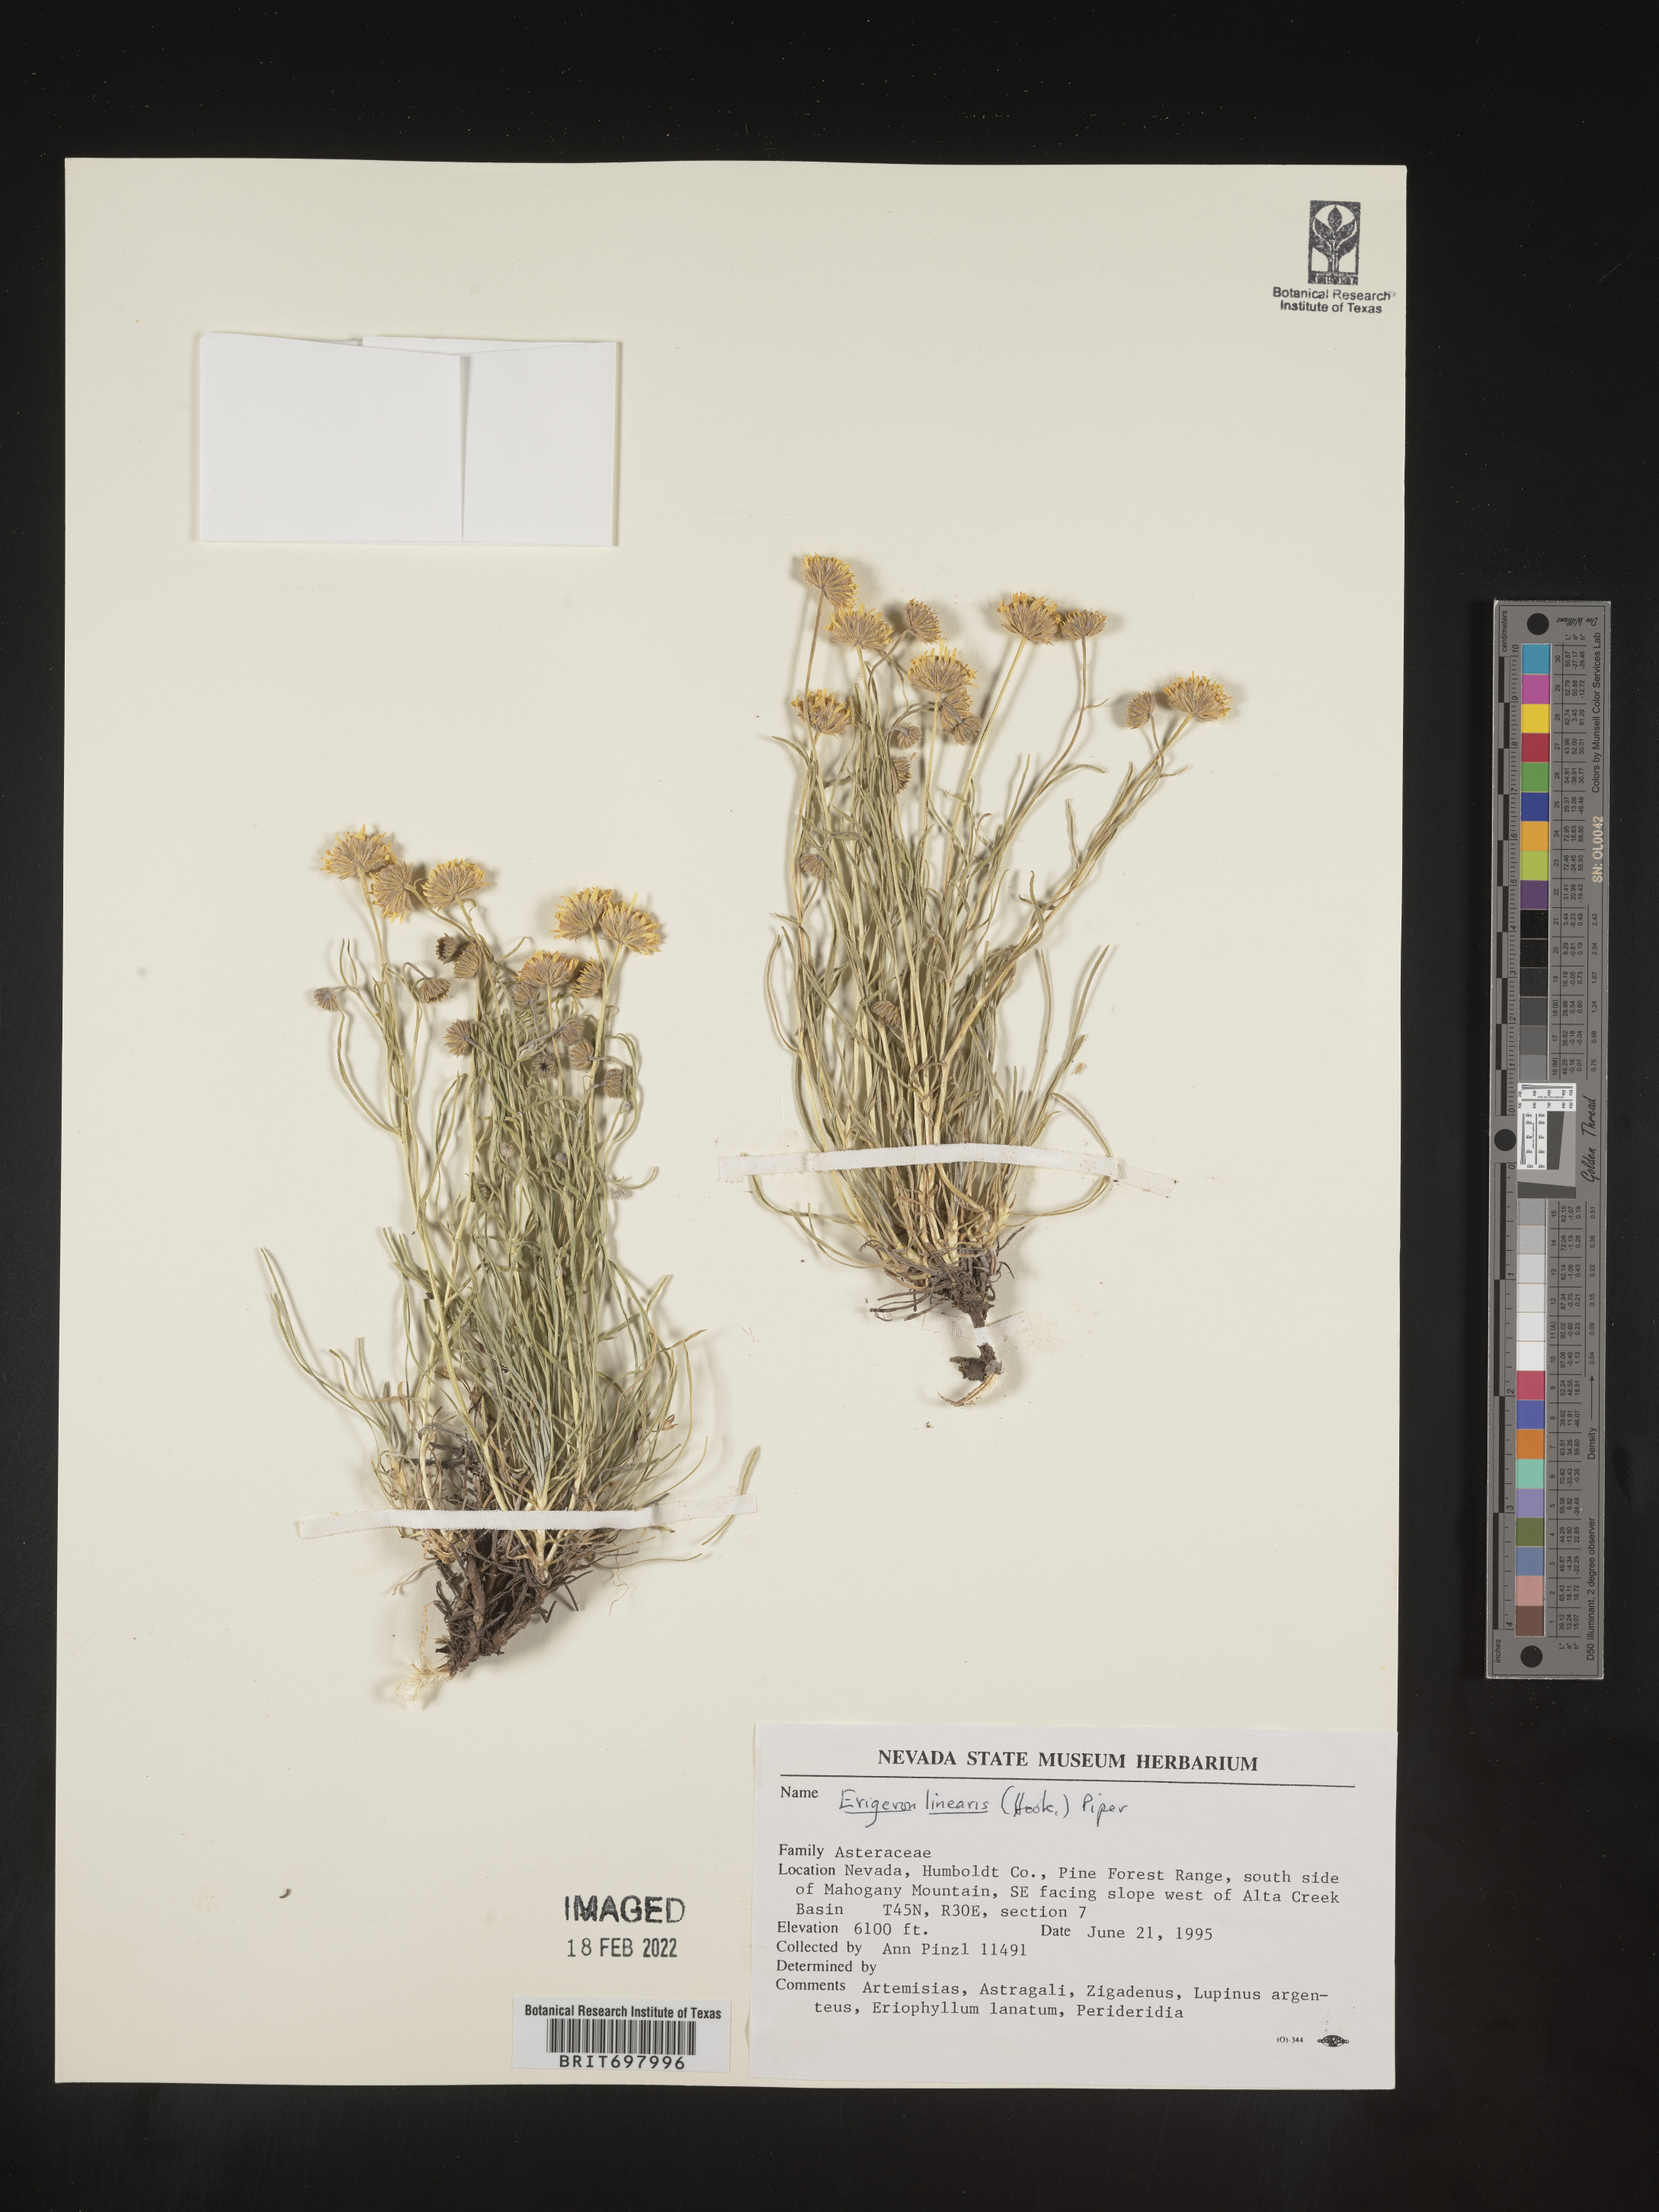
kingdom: Plantae
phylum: Tracheophyta
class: Magnoliopsida
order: Asterales
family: Asteraceae
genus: Erigeron
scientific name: Erigeron linearis
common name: Desert yellow fleabane
